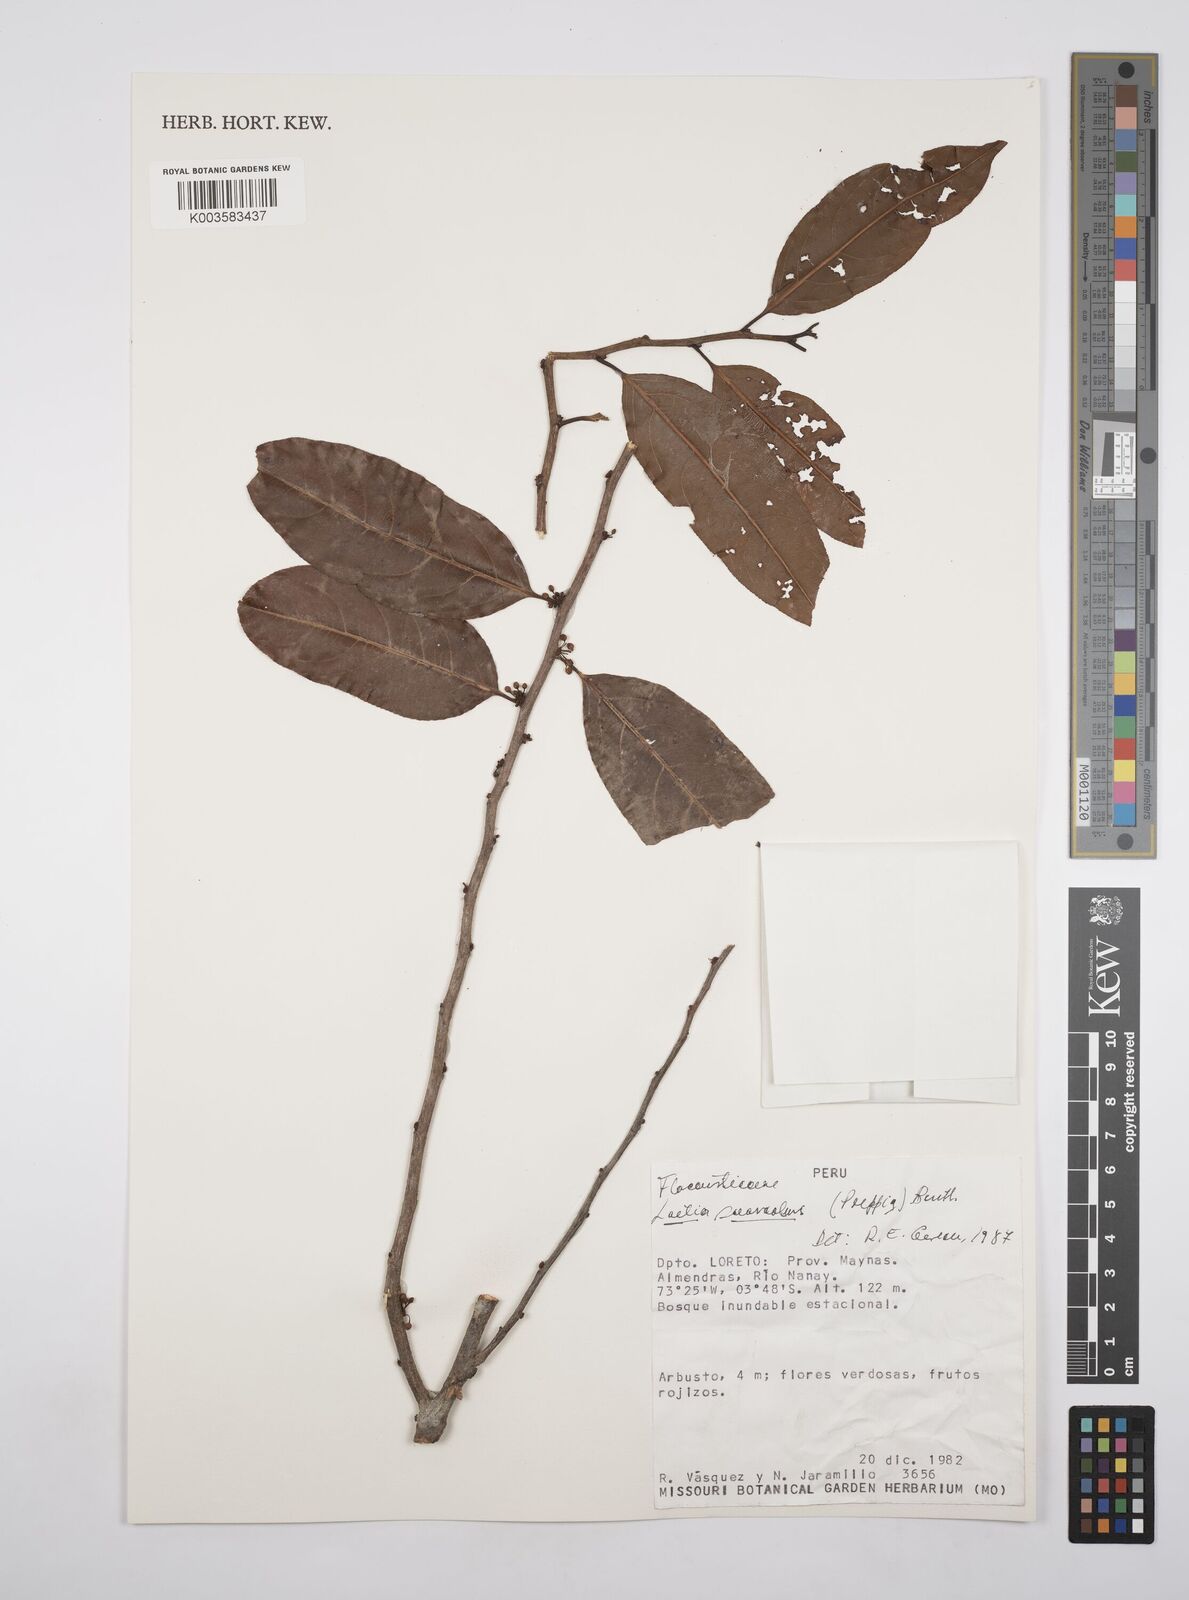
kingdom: Plantae
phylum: Tracheophyta
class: Magnoliopsida
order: Malpighiales
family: Salicaceae
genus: Casearia
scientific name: Casearia suaveolens
